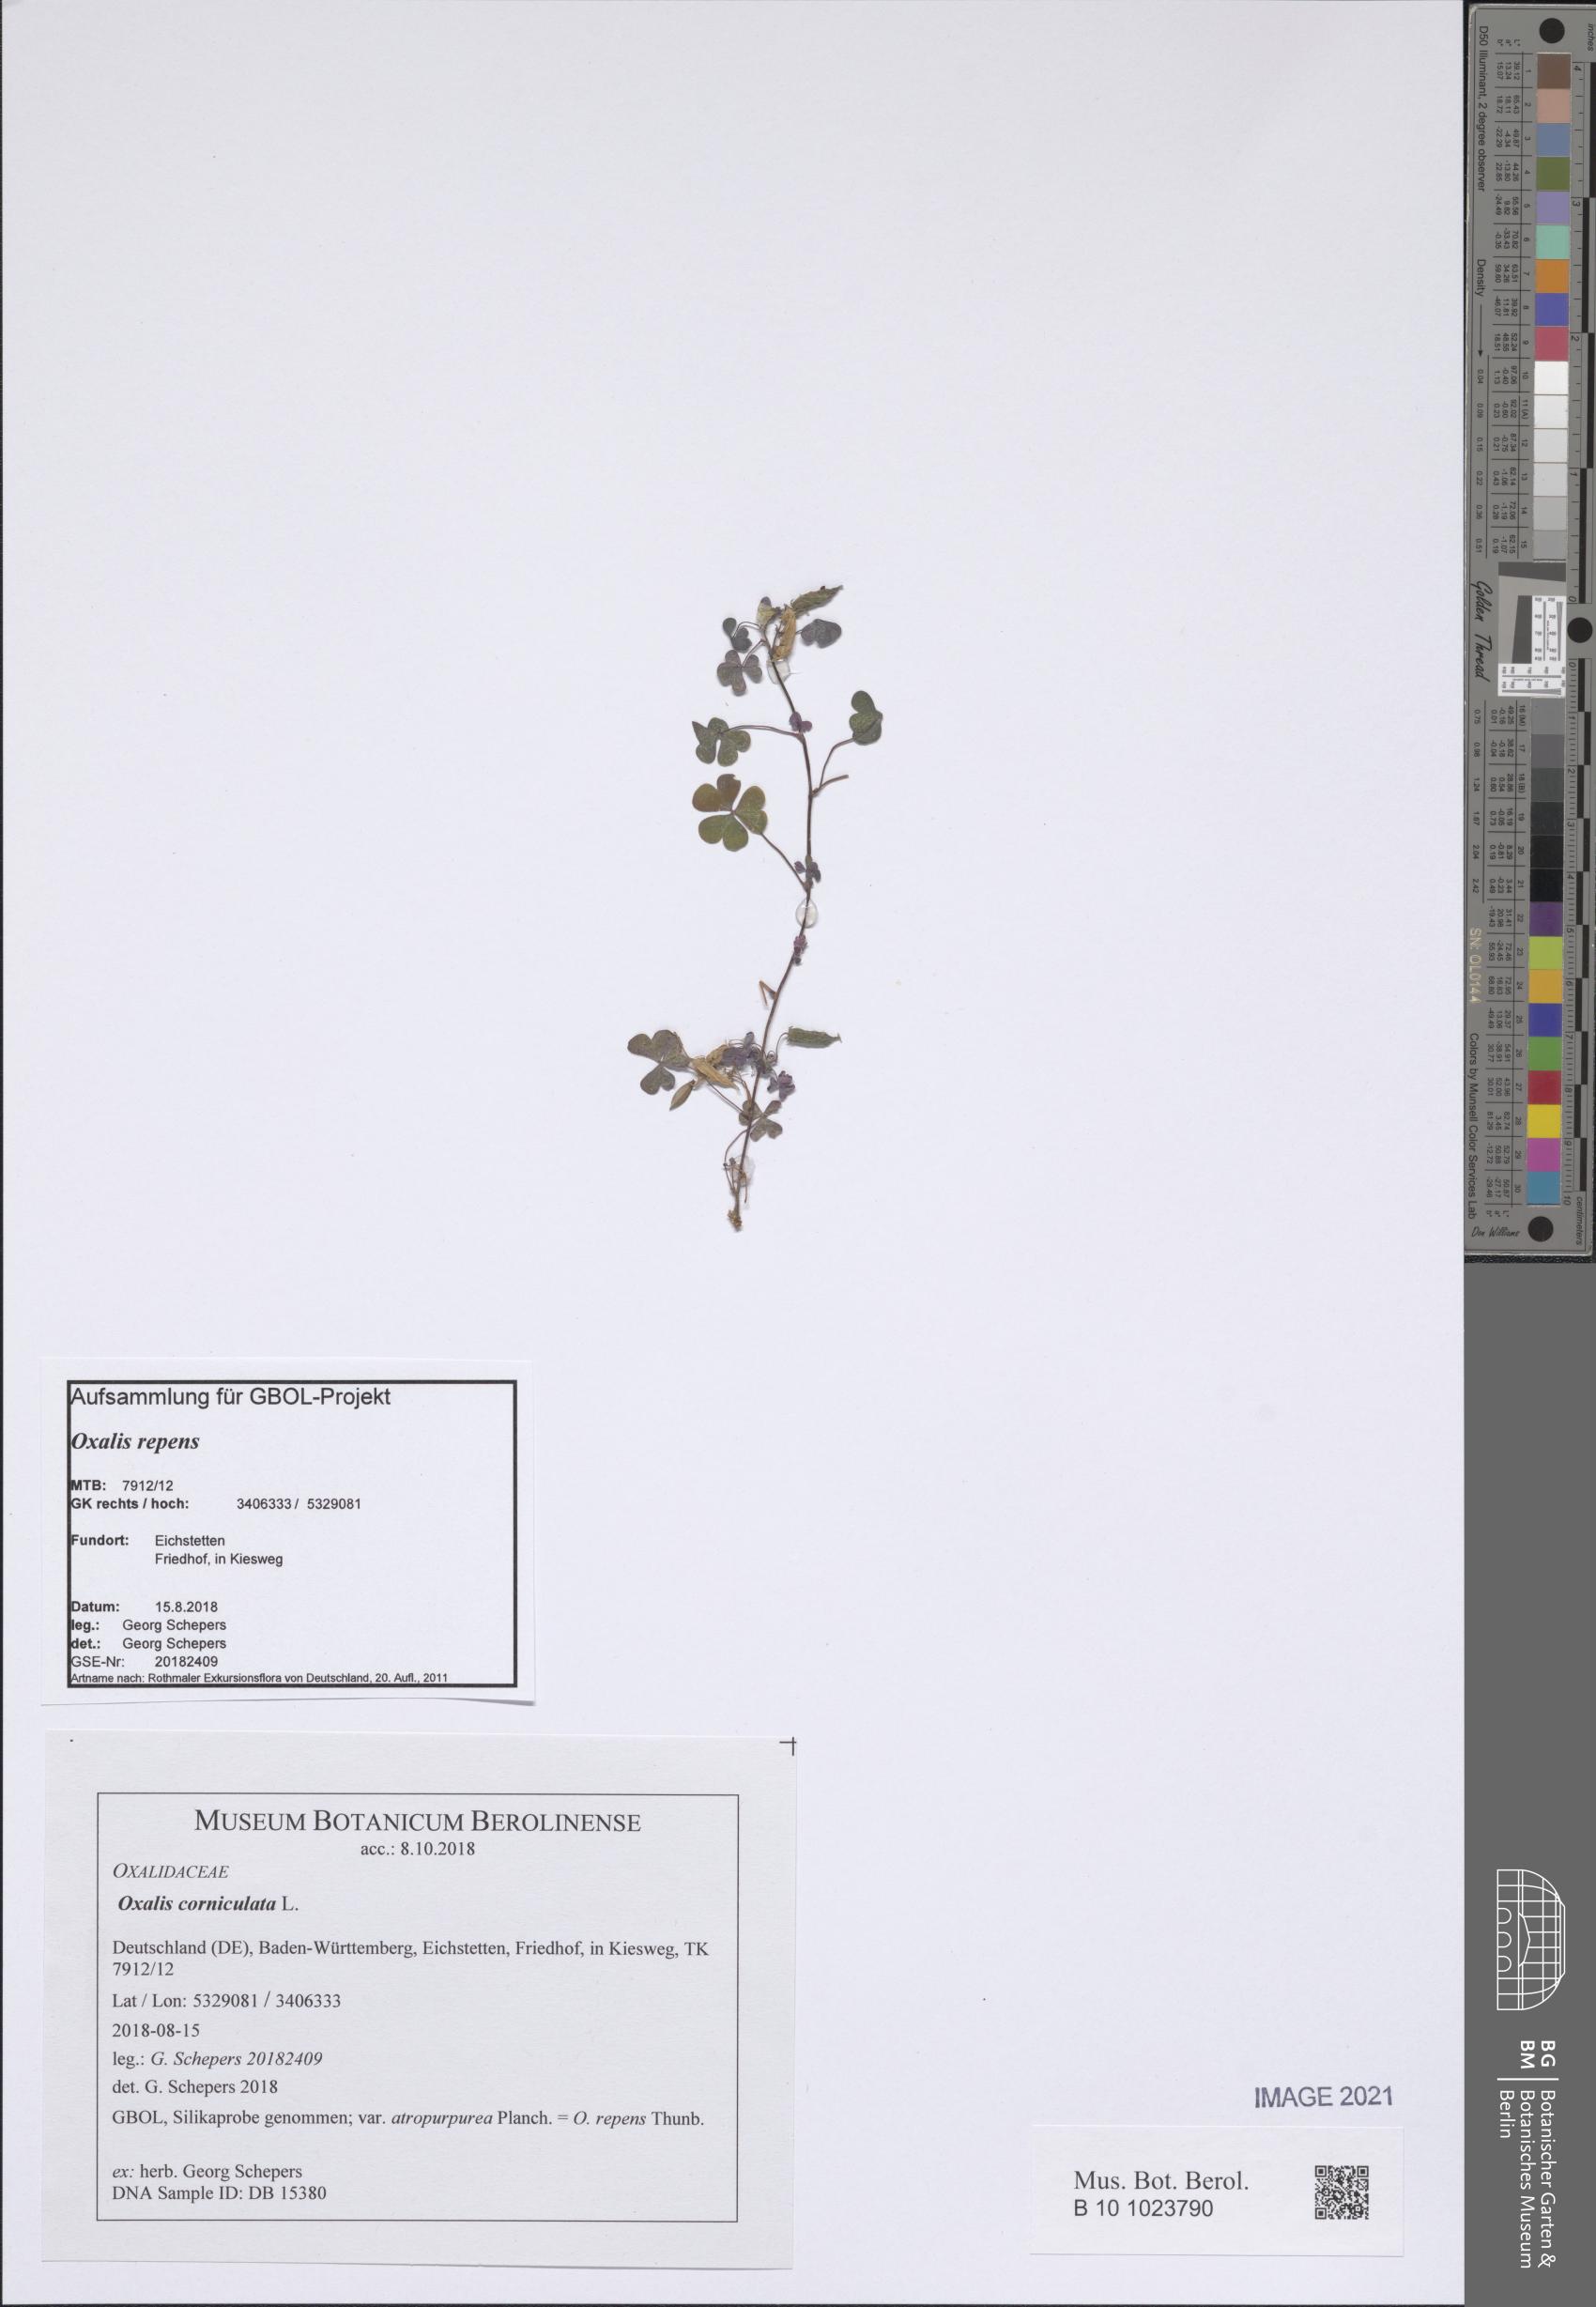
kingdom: Plantae
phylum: Tracheophyta
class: Magnoliopsida
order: Oxalidales
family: Oxalidaceae
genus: Oxalis
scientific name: Oxalis corniculata
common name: Procumbent yellow-sorrel
